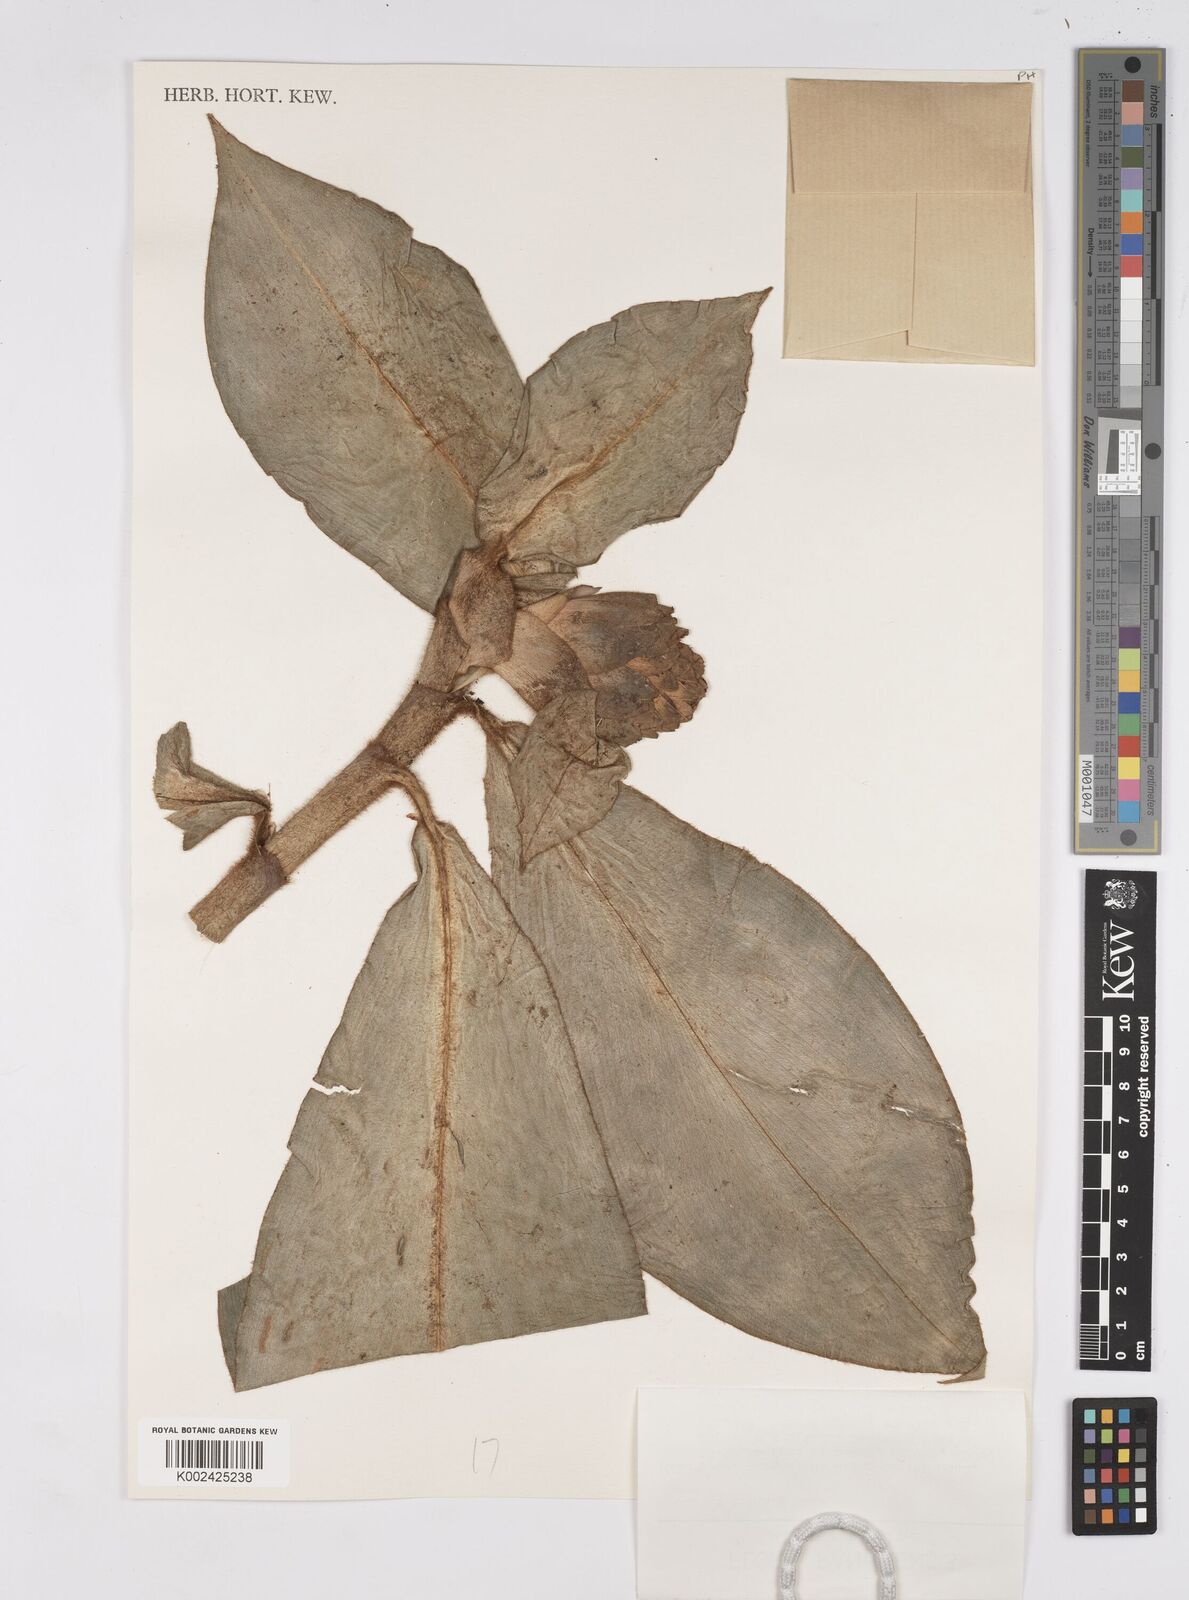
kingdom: Plantae
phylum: Tracheophyta
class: Liliopsida
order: Zingiberales
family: Costaceae
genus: Costus
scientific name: Costus allenii
